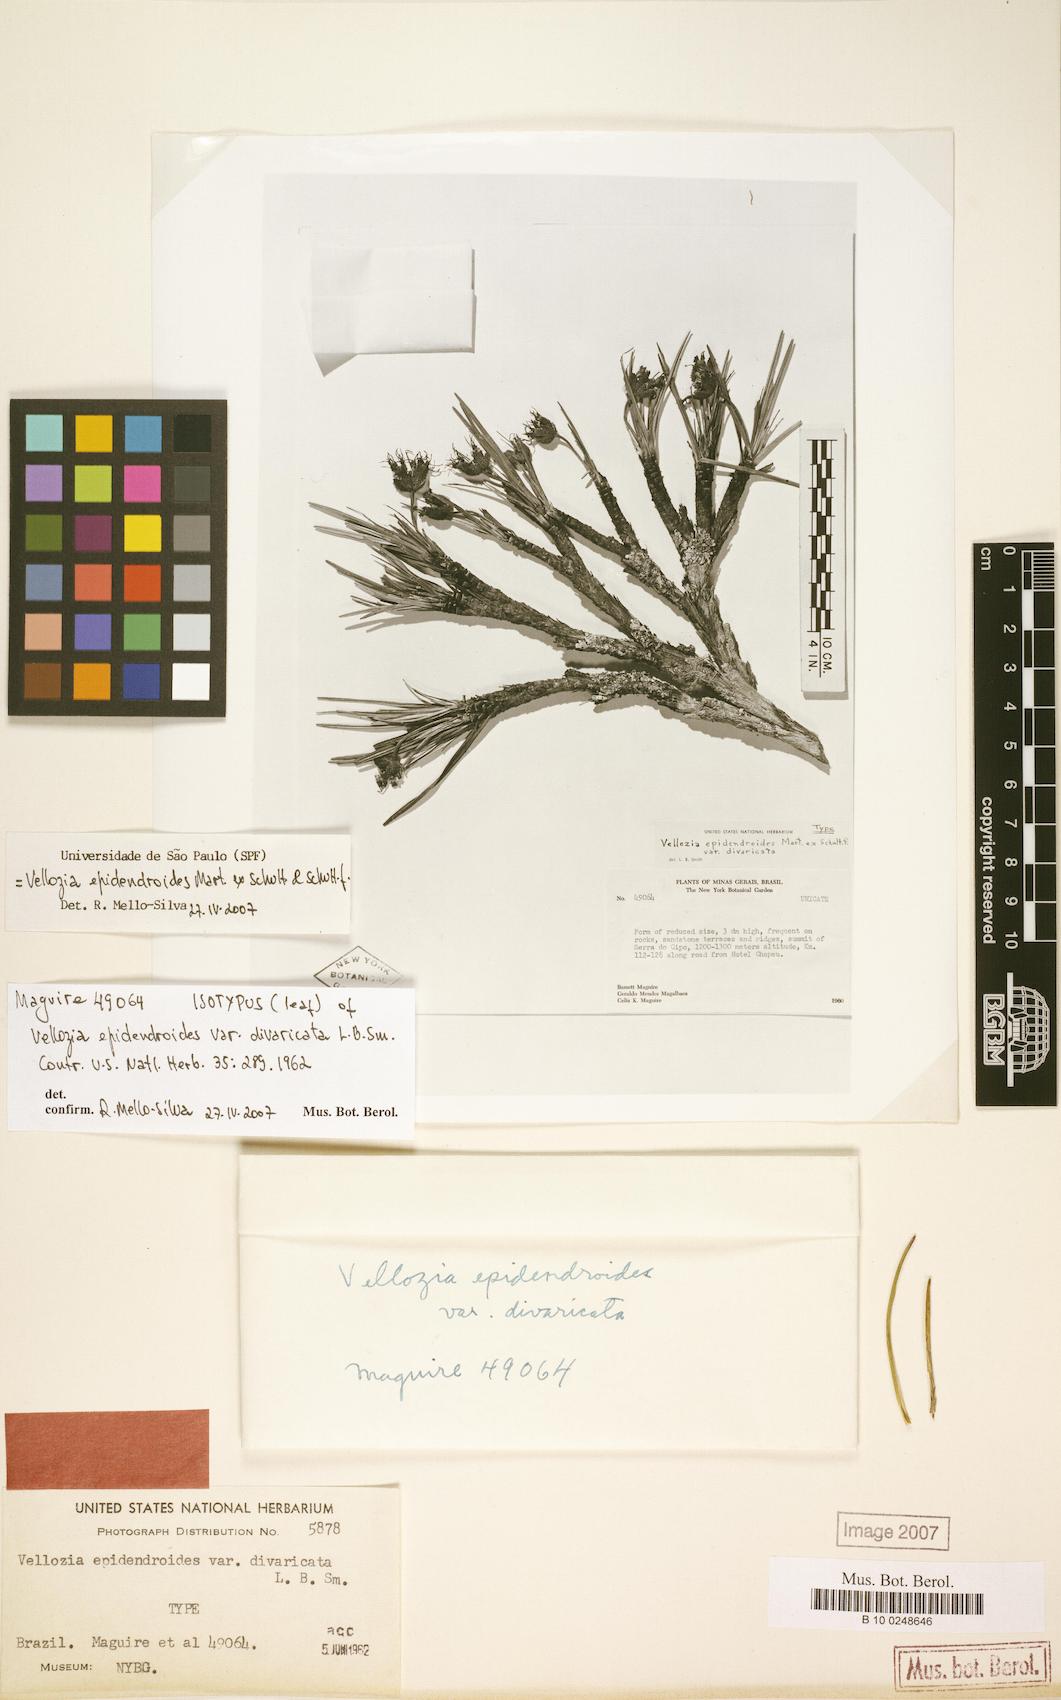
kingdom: Plantae
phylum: Tracheophyta
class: Liliopsida
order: Pandanales
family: Velloziaceae
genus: Vellozia
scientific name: Vellozia epidendroides
